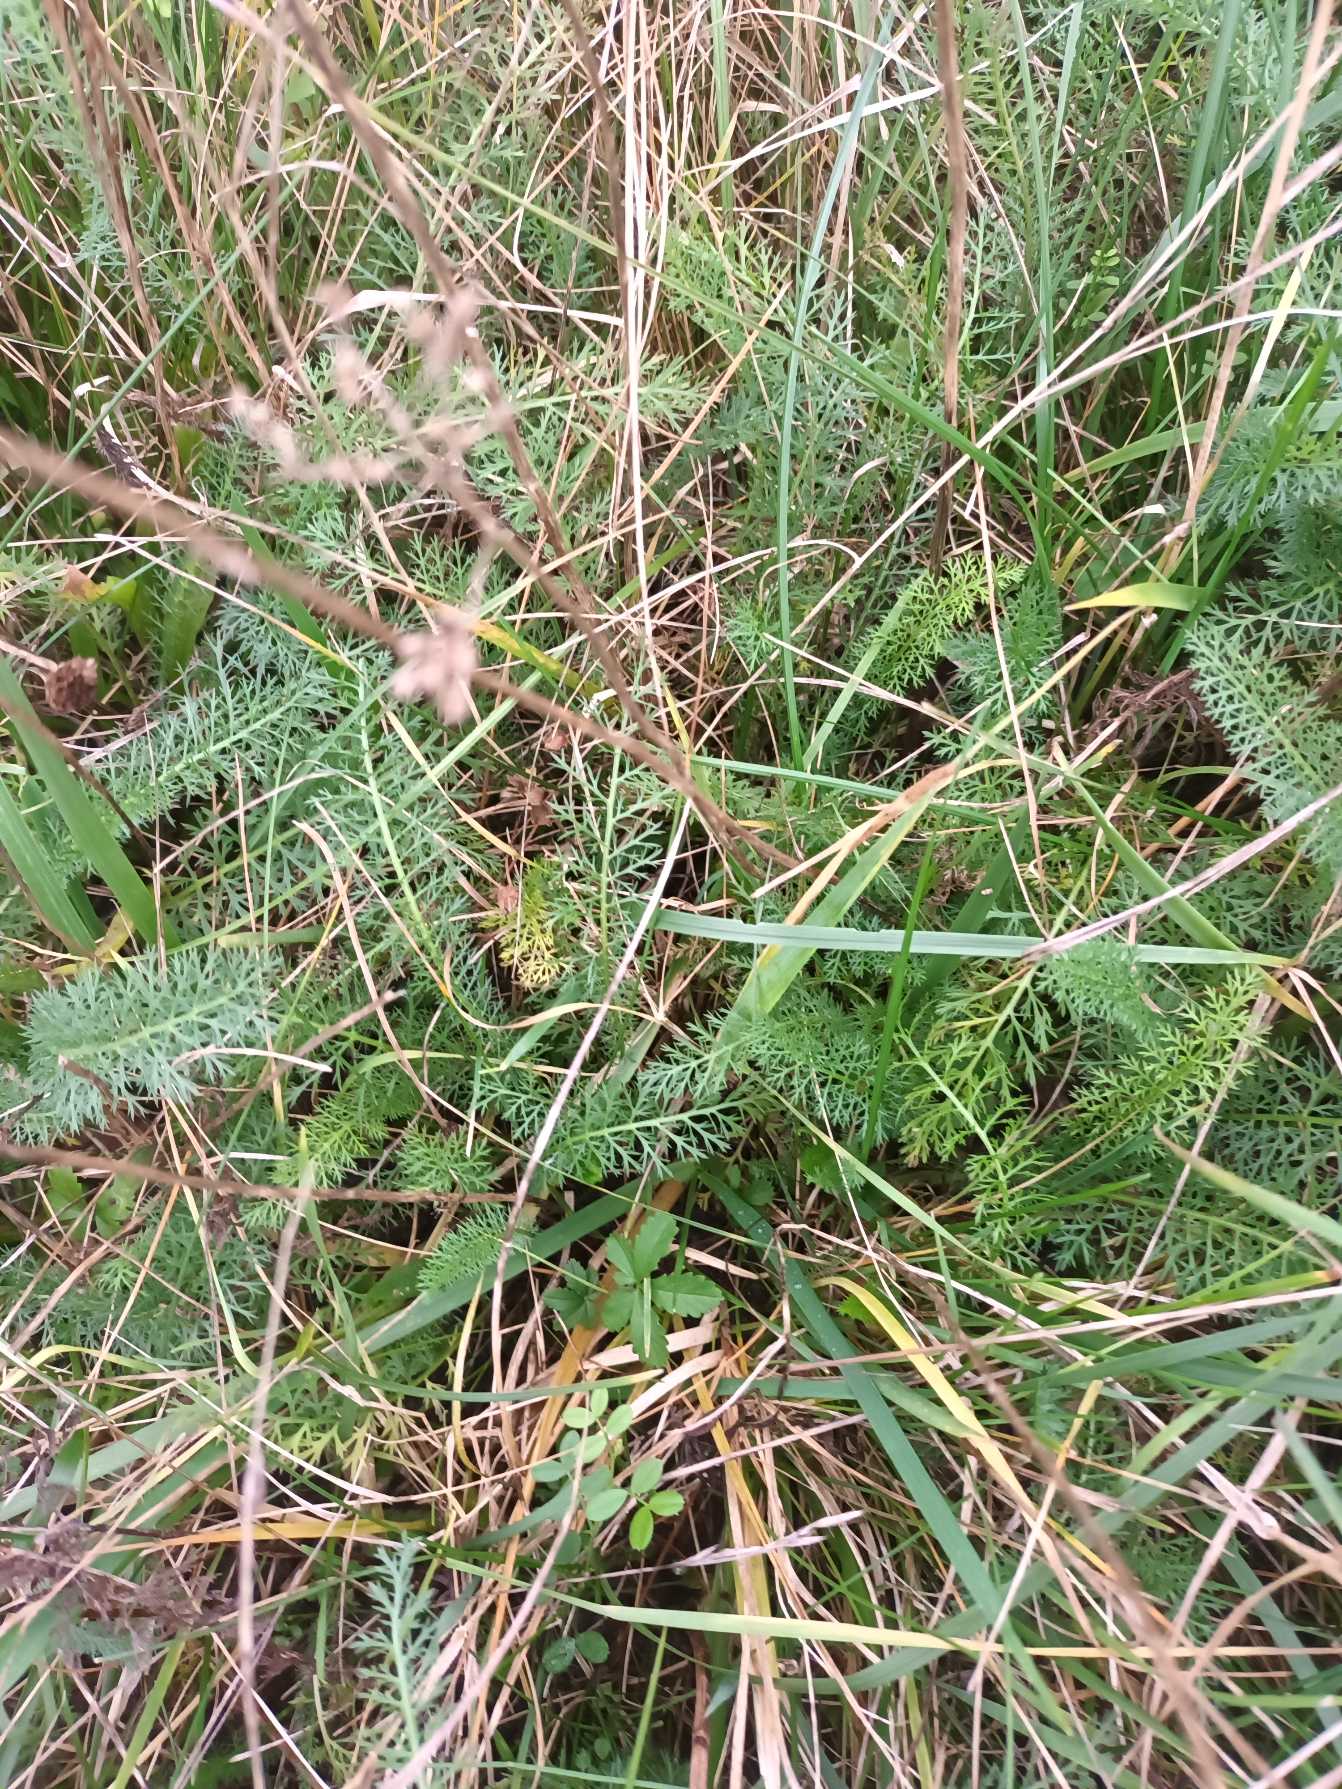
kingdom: Plantae
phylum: Tracheophyta
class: Magnoliopsida
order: Asterales
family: Asteraceae
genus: Achillea
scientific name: Achillea millefolium
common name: Almindelig røllike
